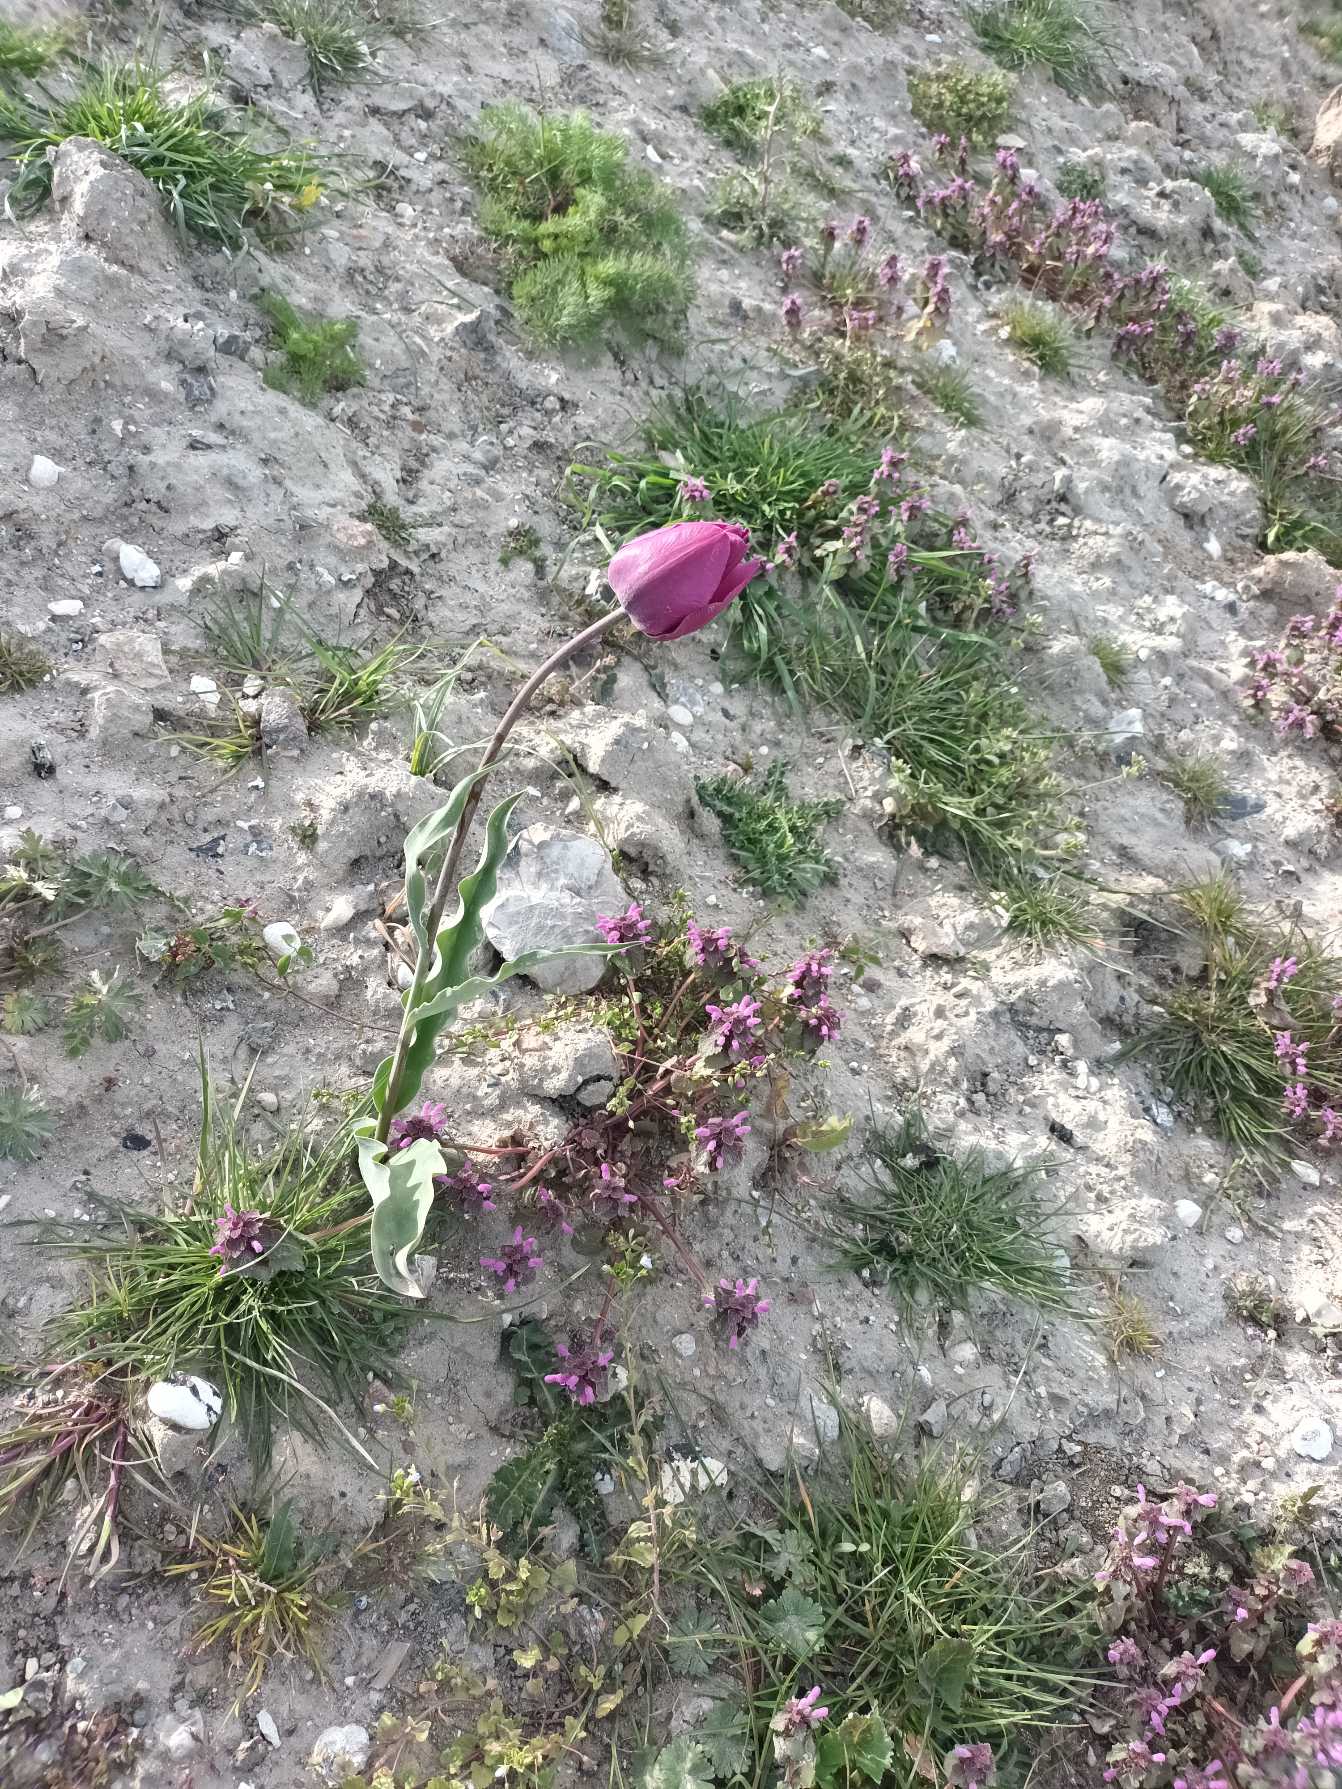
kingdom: Plantae
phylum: Tracheophyta
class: Liliopsida
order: Liliales
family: Liliaceae
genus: Tulipa
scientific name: Tulipa gesneriana
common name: Have-tulipan
